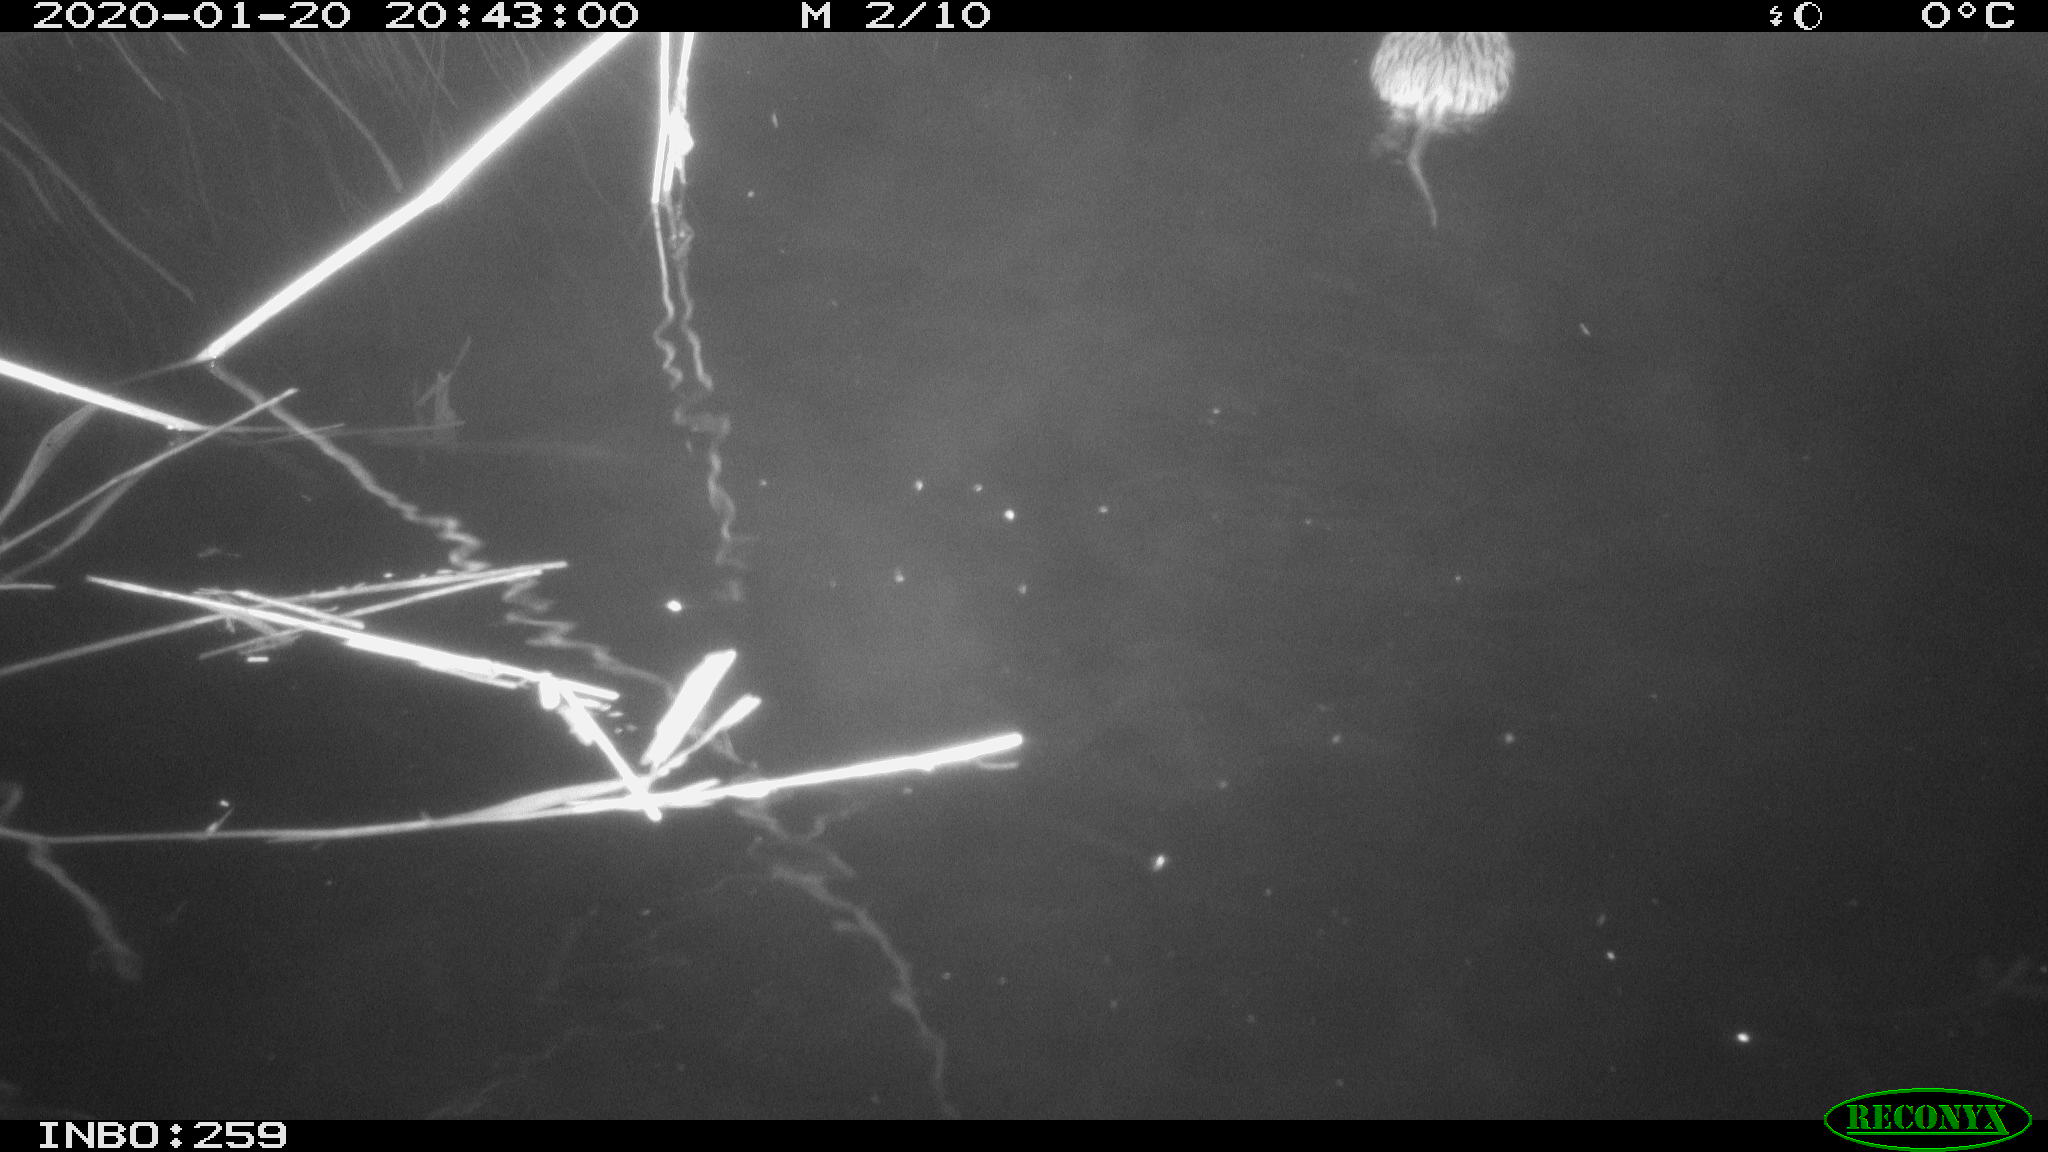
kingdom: Animalia
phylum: Chordata
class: Mammalia
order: Rodentia
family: Cricetidae
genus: Ondatra
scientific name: Ondatra zibethicus
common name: Muskrat
